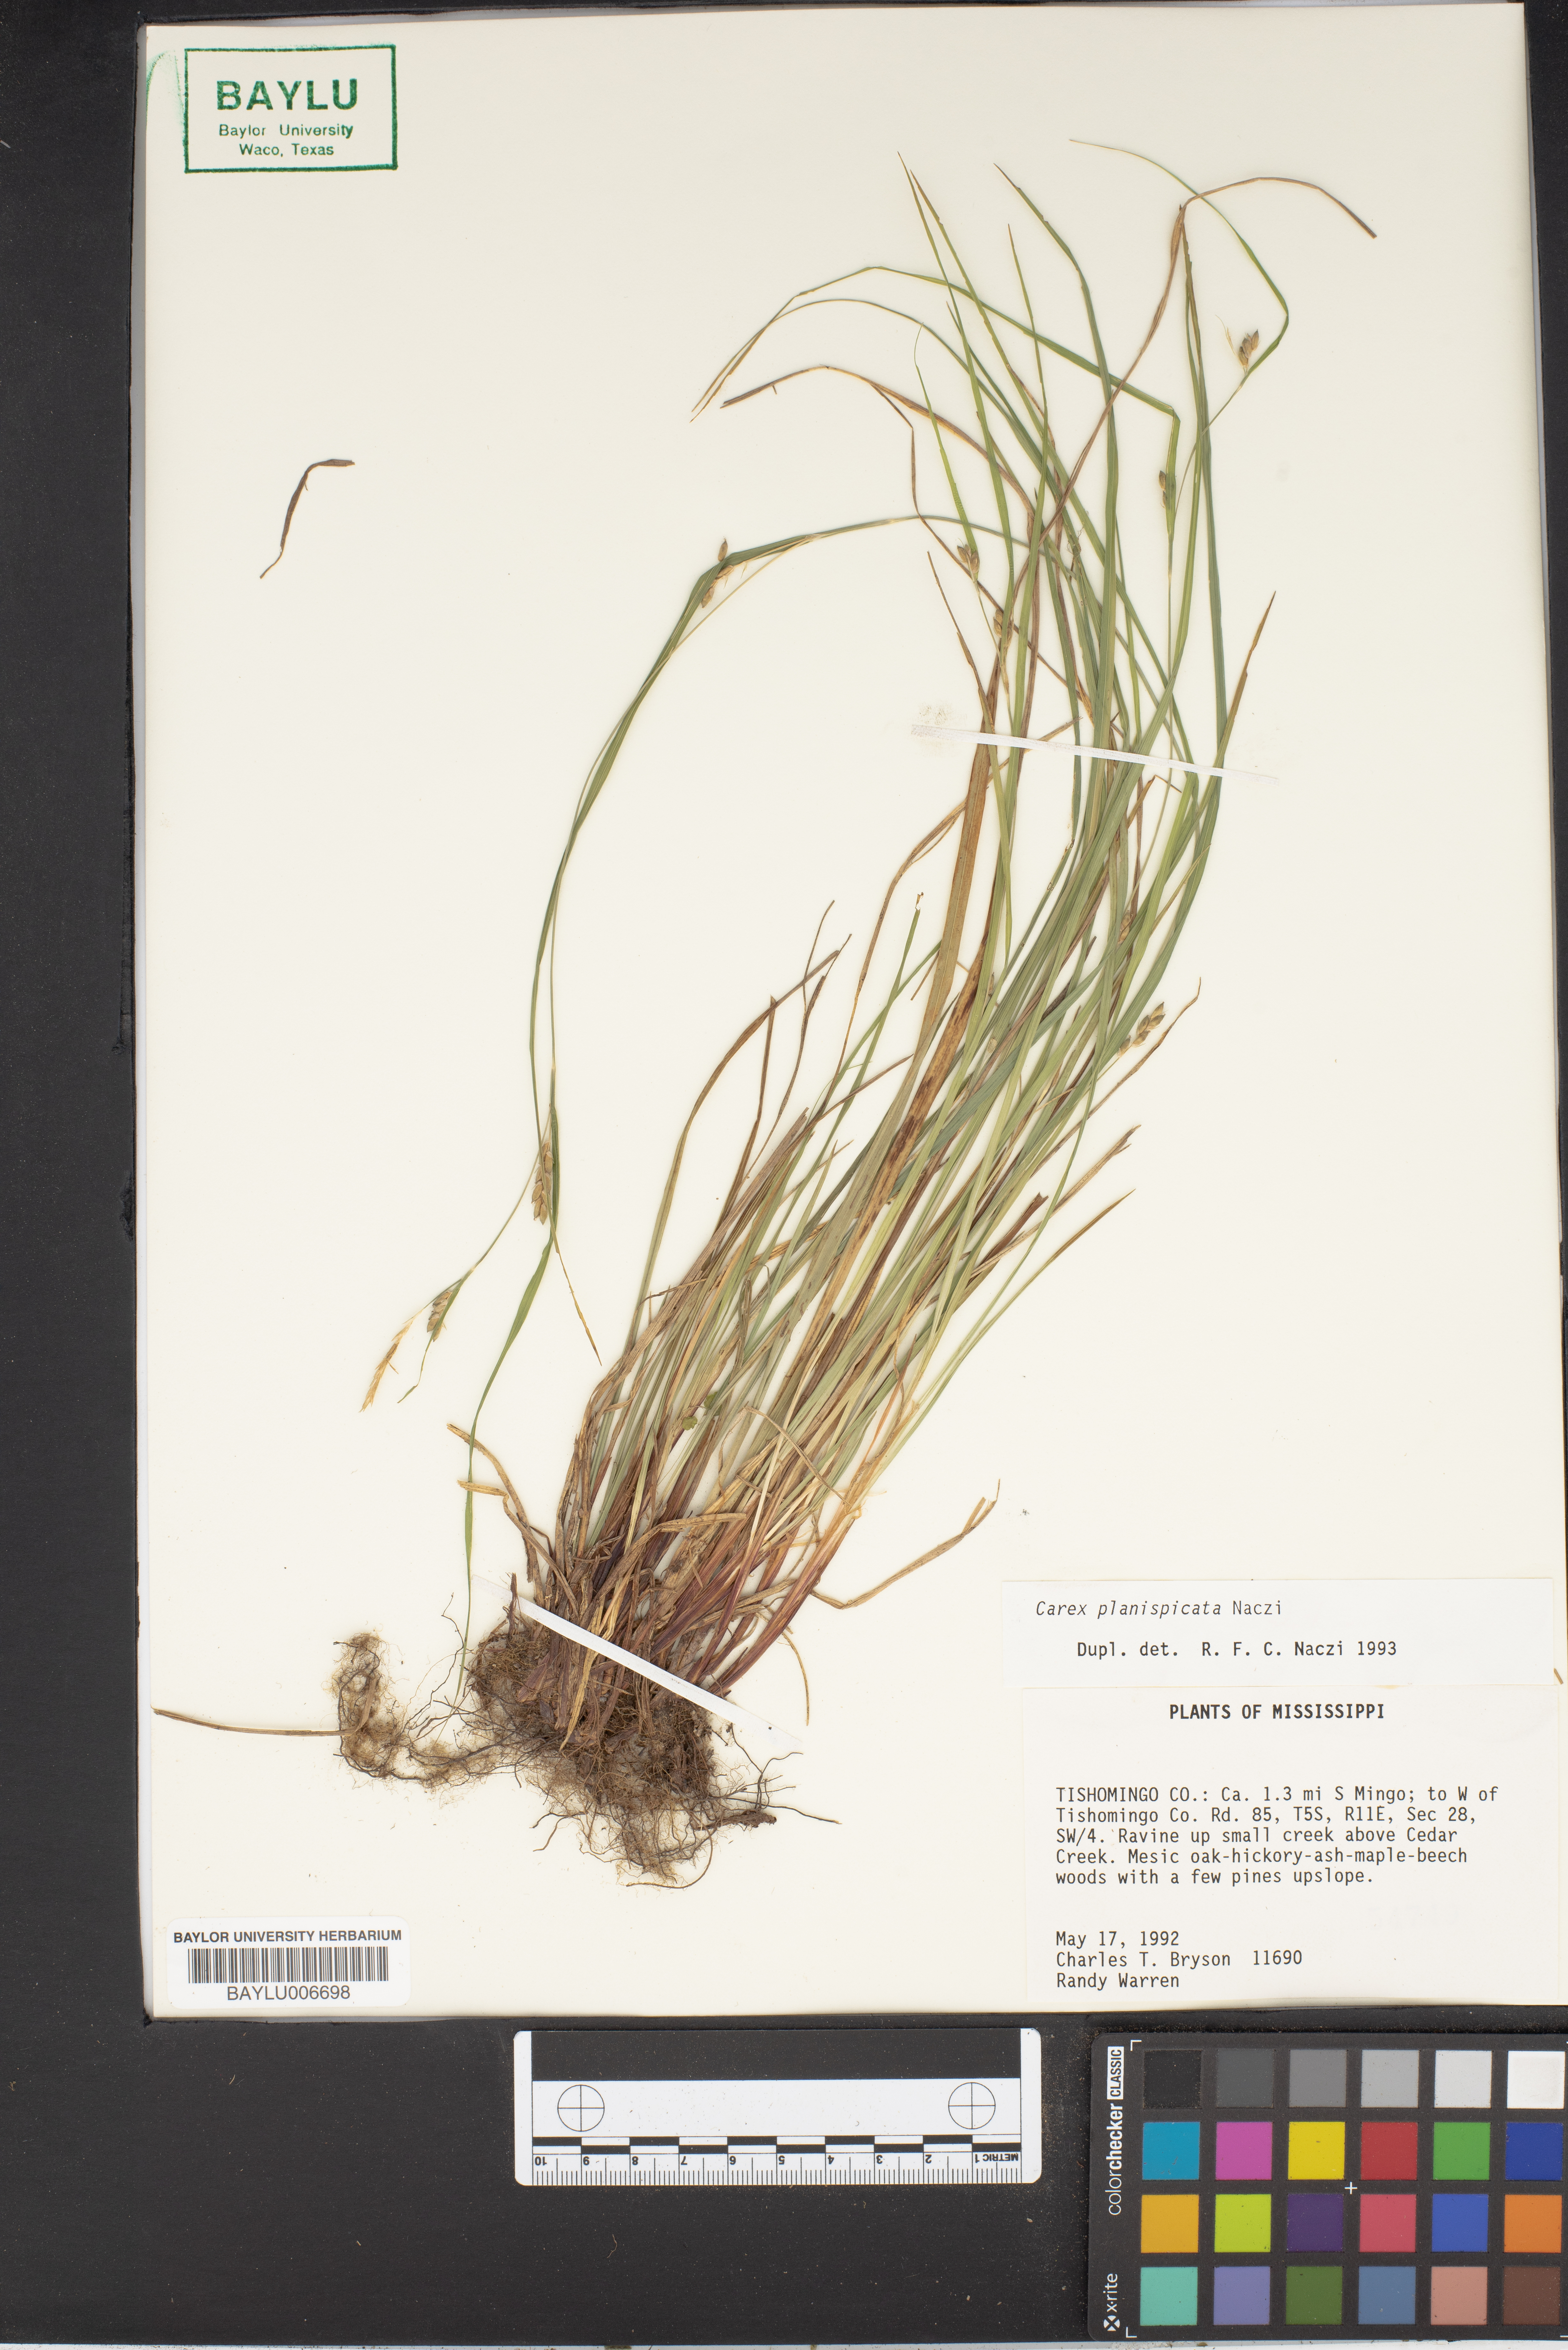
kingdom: Plantae
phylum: Tracheophyta
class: Liliopsida
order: Poales
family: Cyperaceae
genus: Carex
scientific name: Carex planispicata
